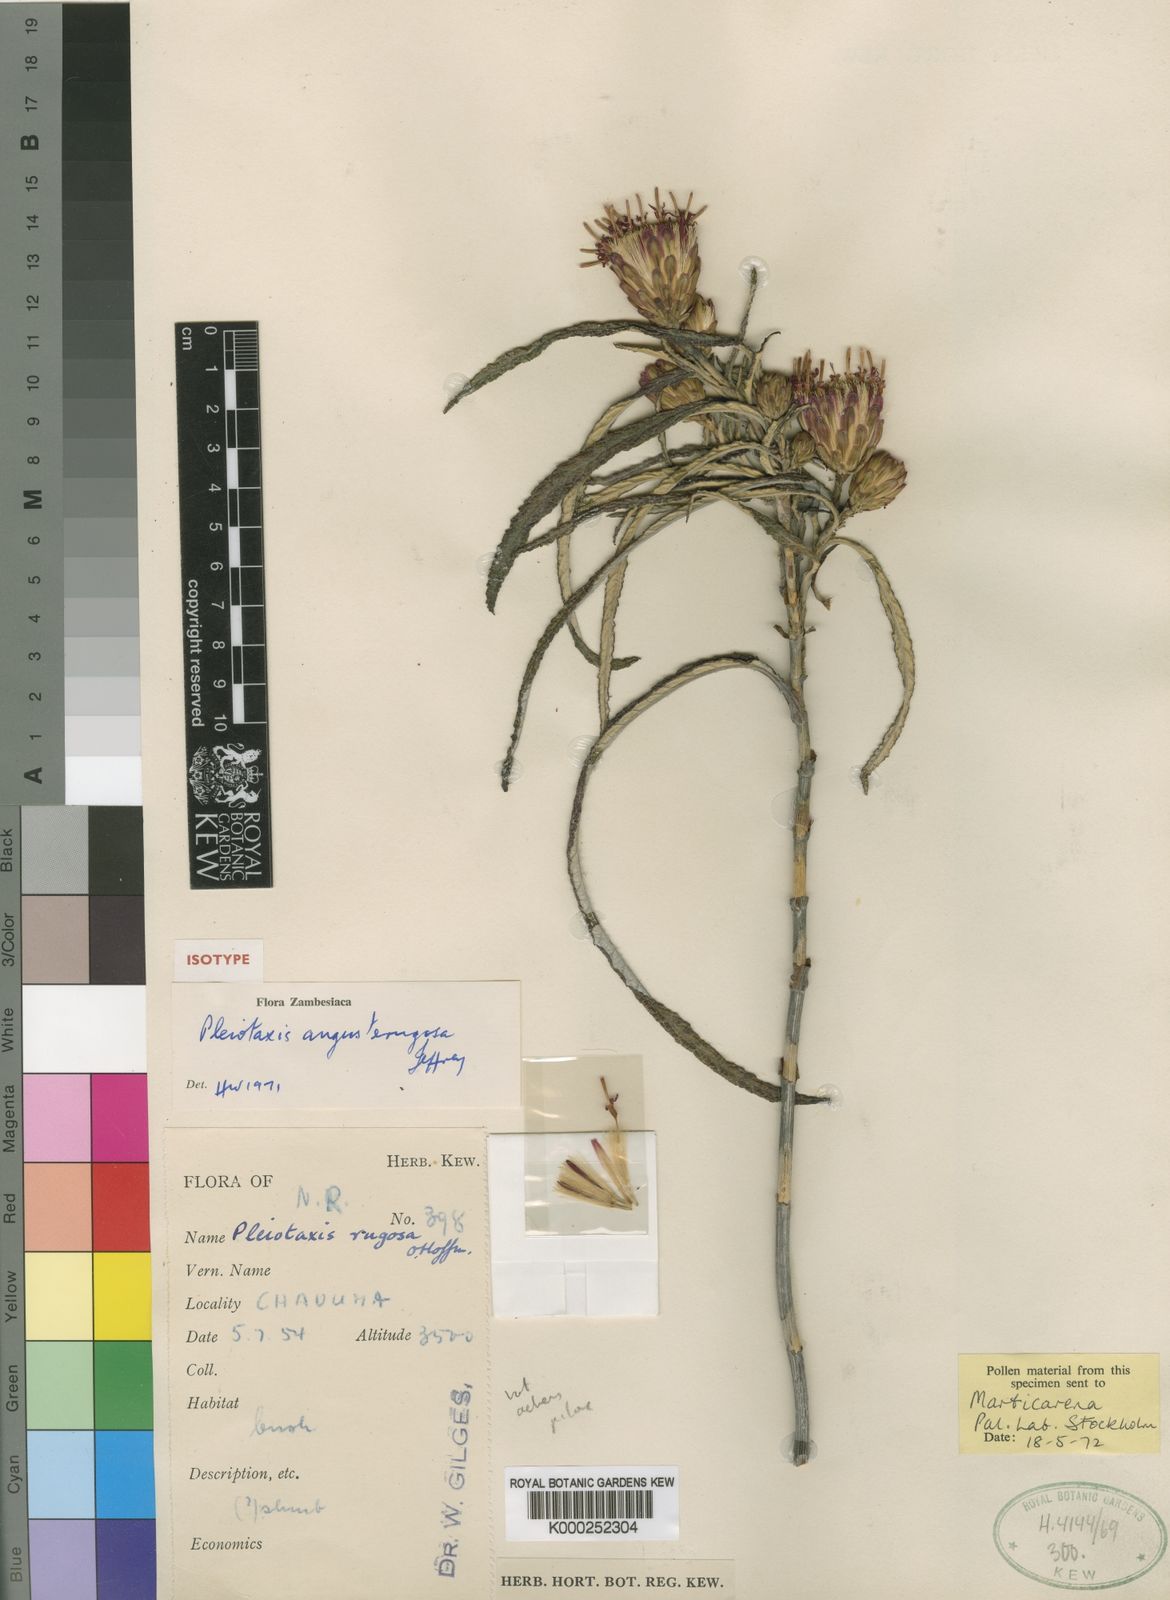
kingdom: Plantae
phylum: Tracheophyta
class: Magnoliopsida
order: Asterales
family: Asteraceae
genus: Pleiotaxis
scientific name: Pleiotaxis angusterugosa
